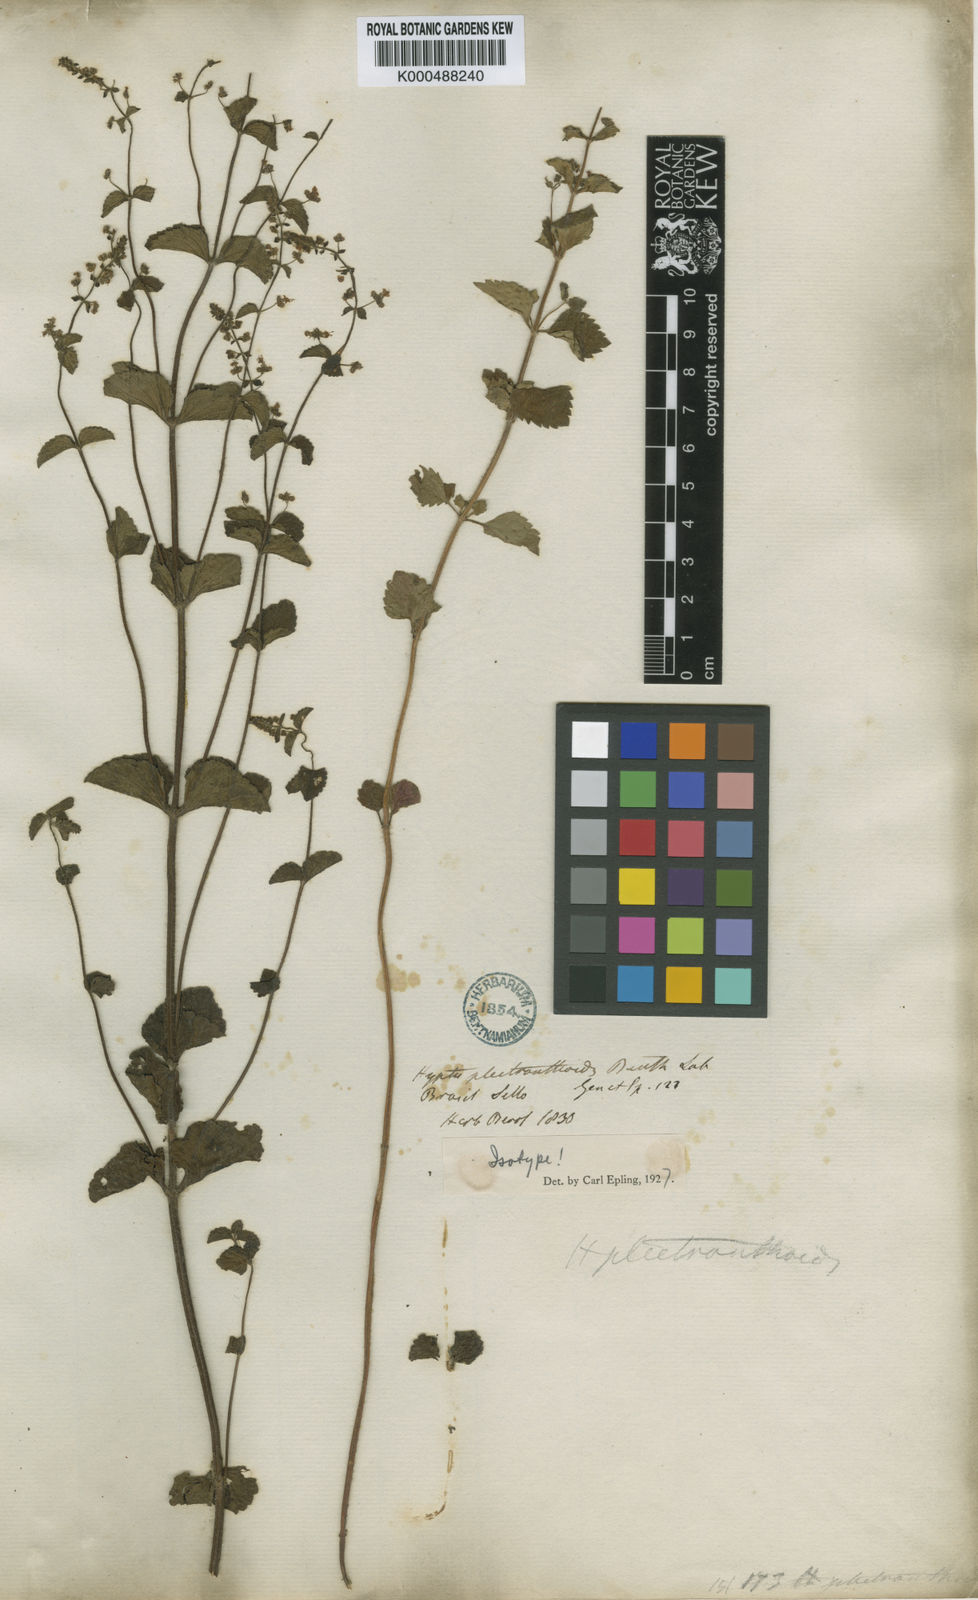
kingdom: Plantae
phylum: Tracheophyta
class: Magnoliopsida
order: Lamiales
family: Lamiaceae
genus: Cantinoa
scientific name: Cantinoa racemulosa
